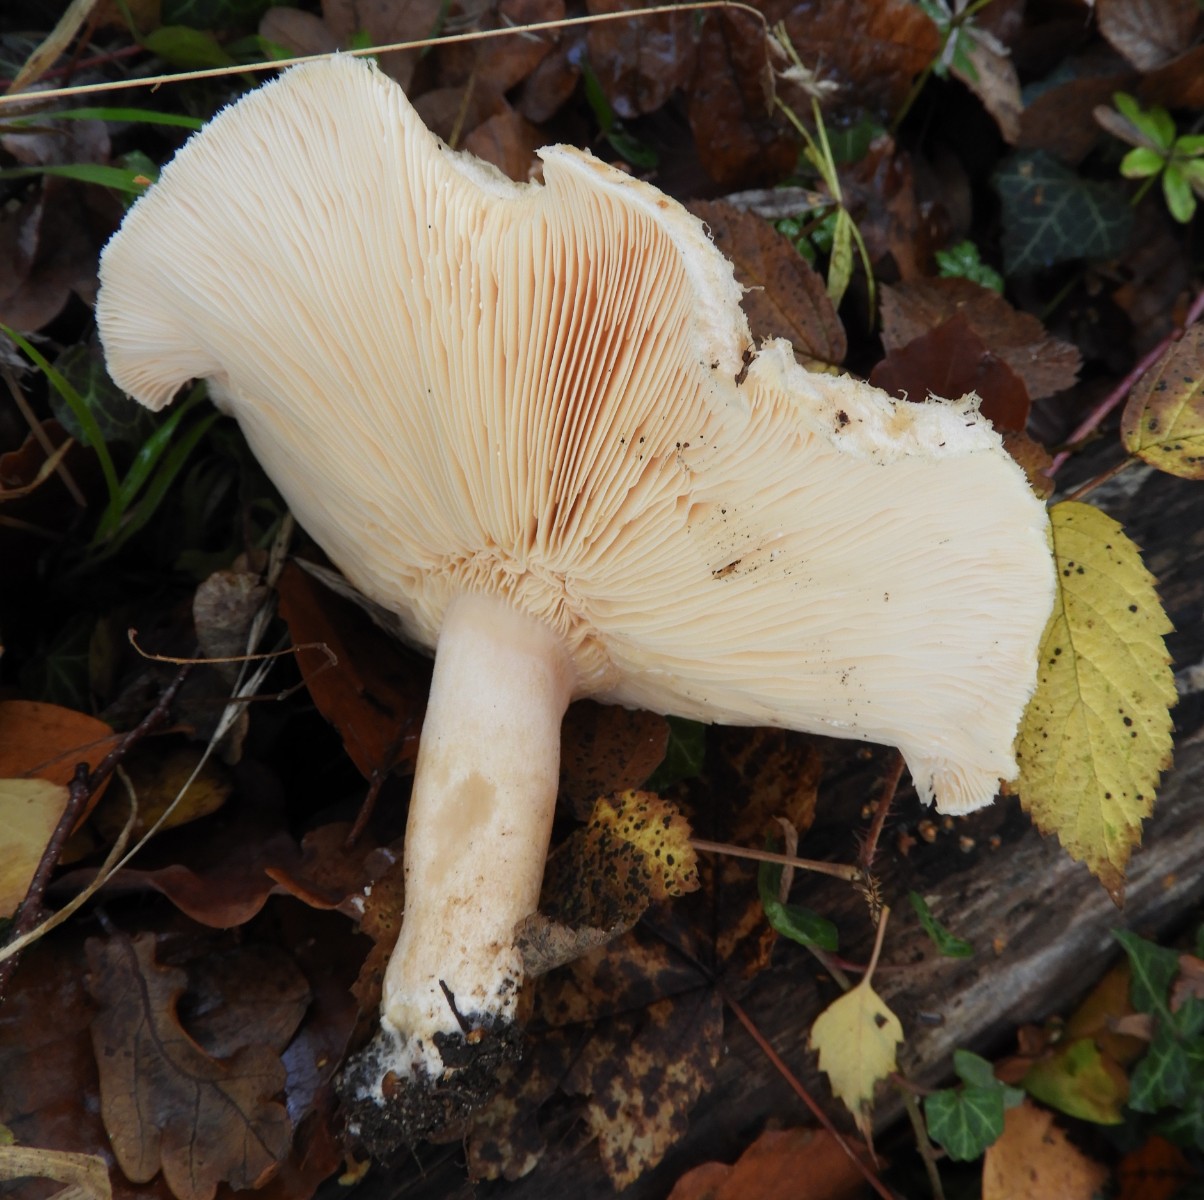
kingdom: Fungi
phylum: Basidiomycota
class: Agaricomycetes
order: Russulales
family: Russulaceae
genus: Lactarius
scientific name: Lactarius deterrimus
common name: gran-mælkehat
